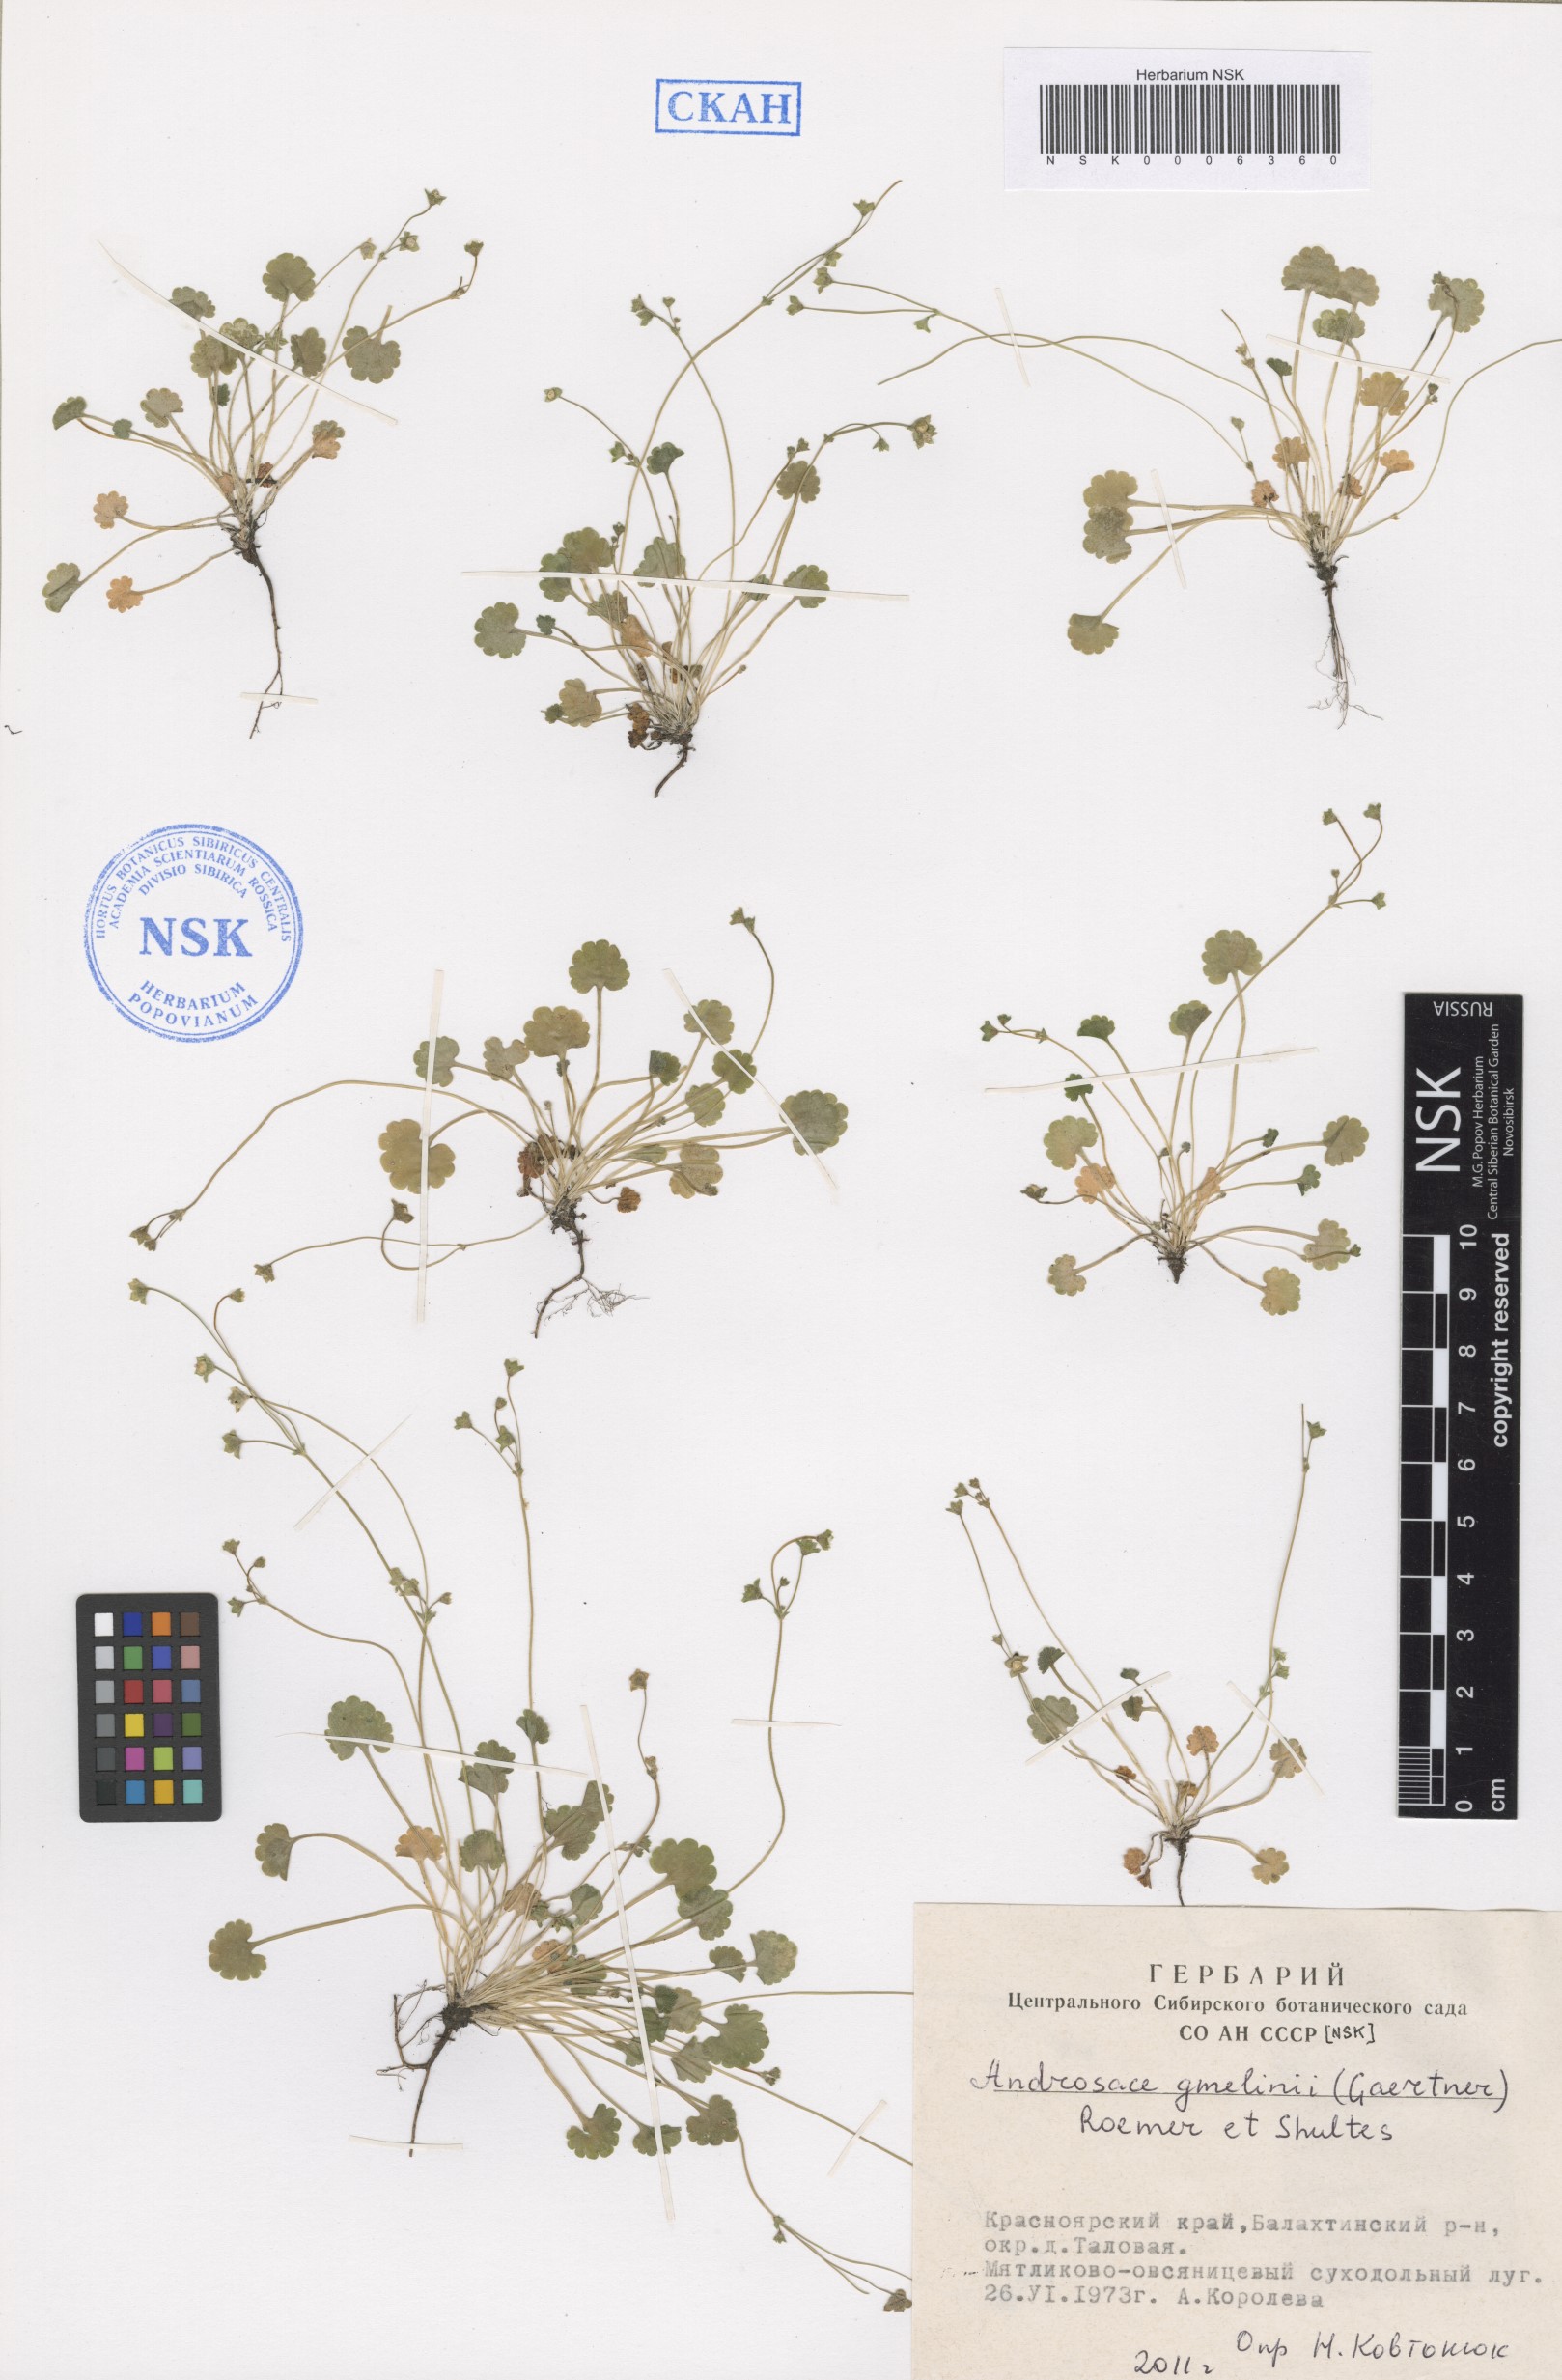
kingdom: Plantae
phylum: Tracheophyta
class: Magnoliopsida
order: Ericales
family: Primulaceae
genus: Androsace
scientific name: Androsace gmelinii
